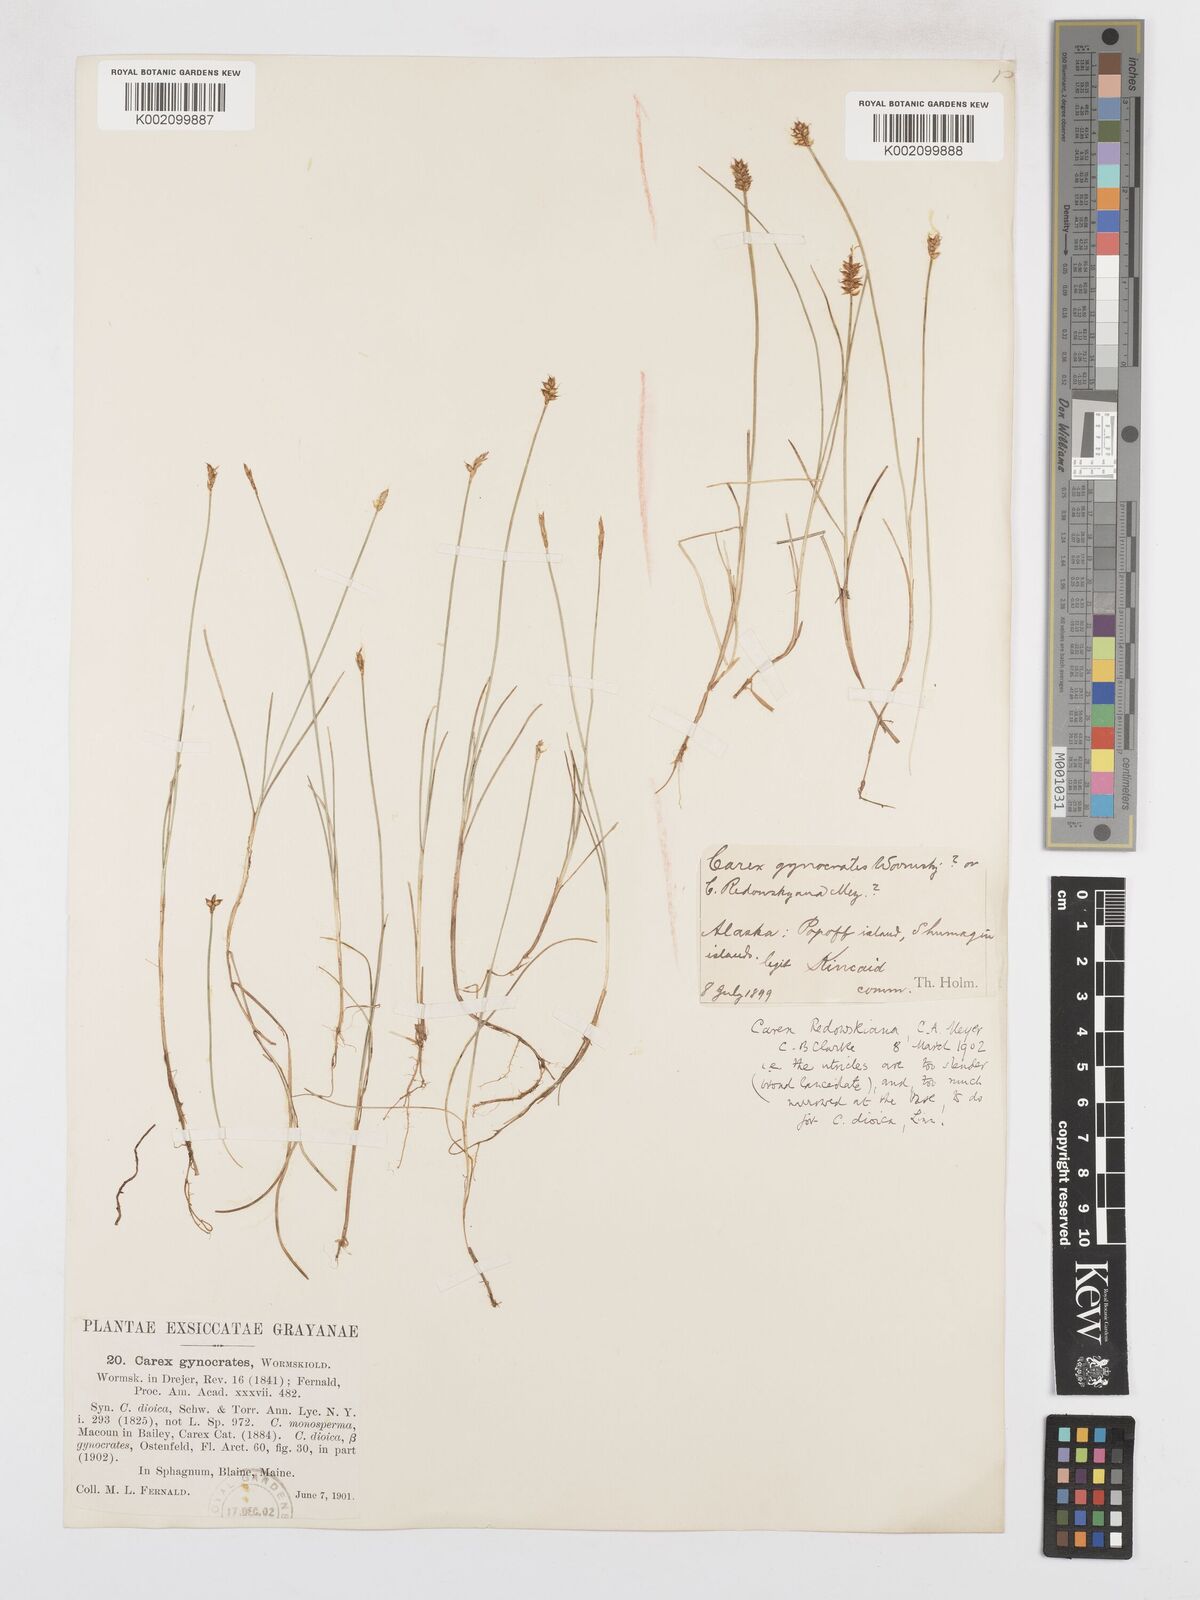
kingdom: Plantae
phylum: Tracheophyta
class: Liliopsida
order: Poales
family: Cyperaceae
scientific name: Cyperaceae
